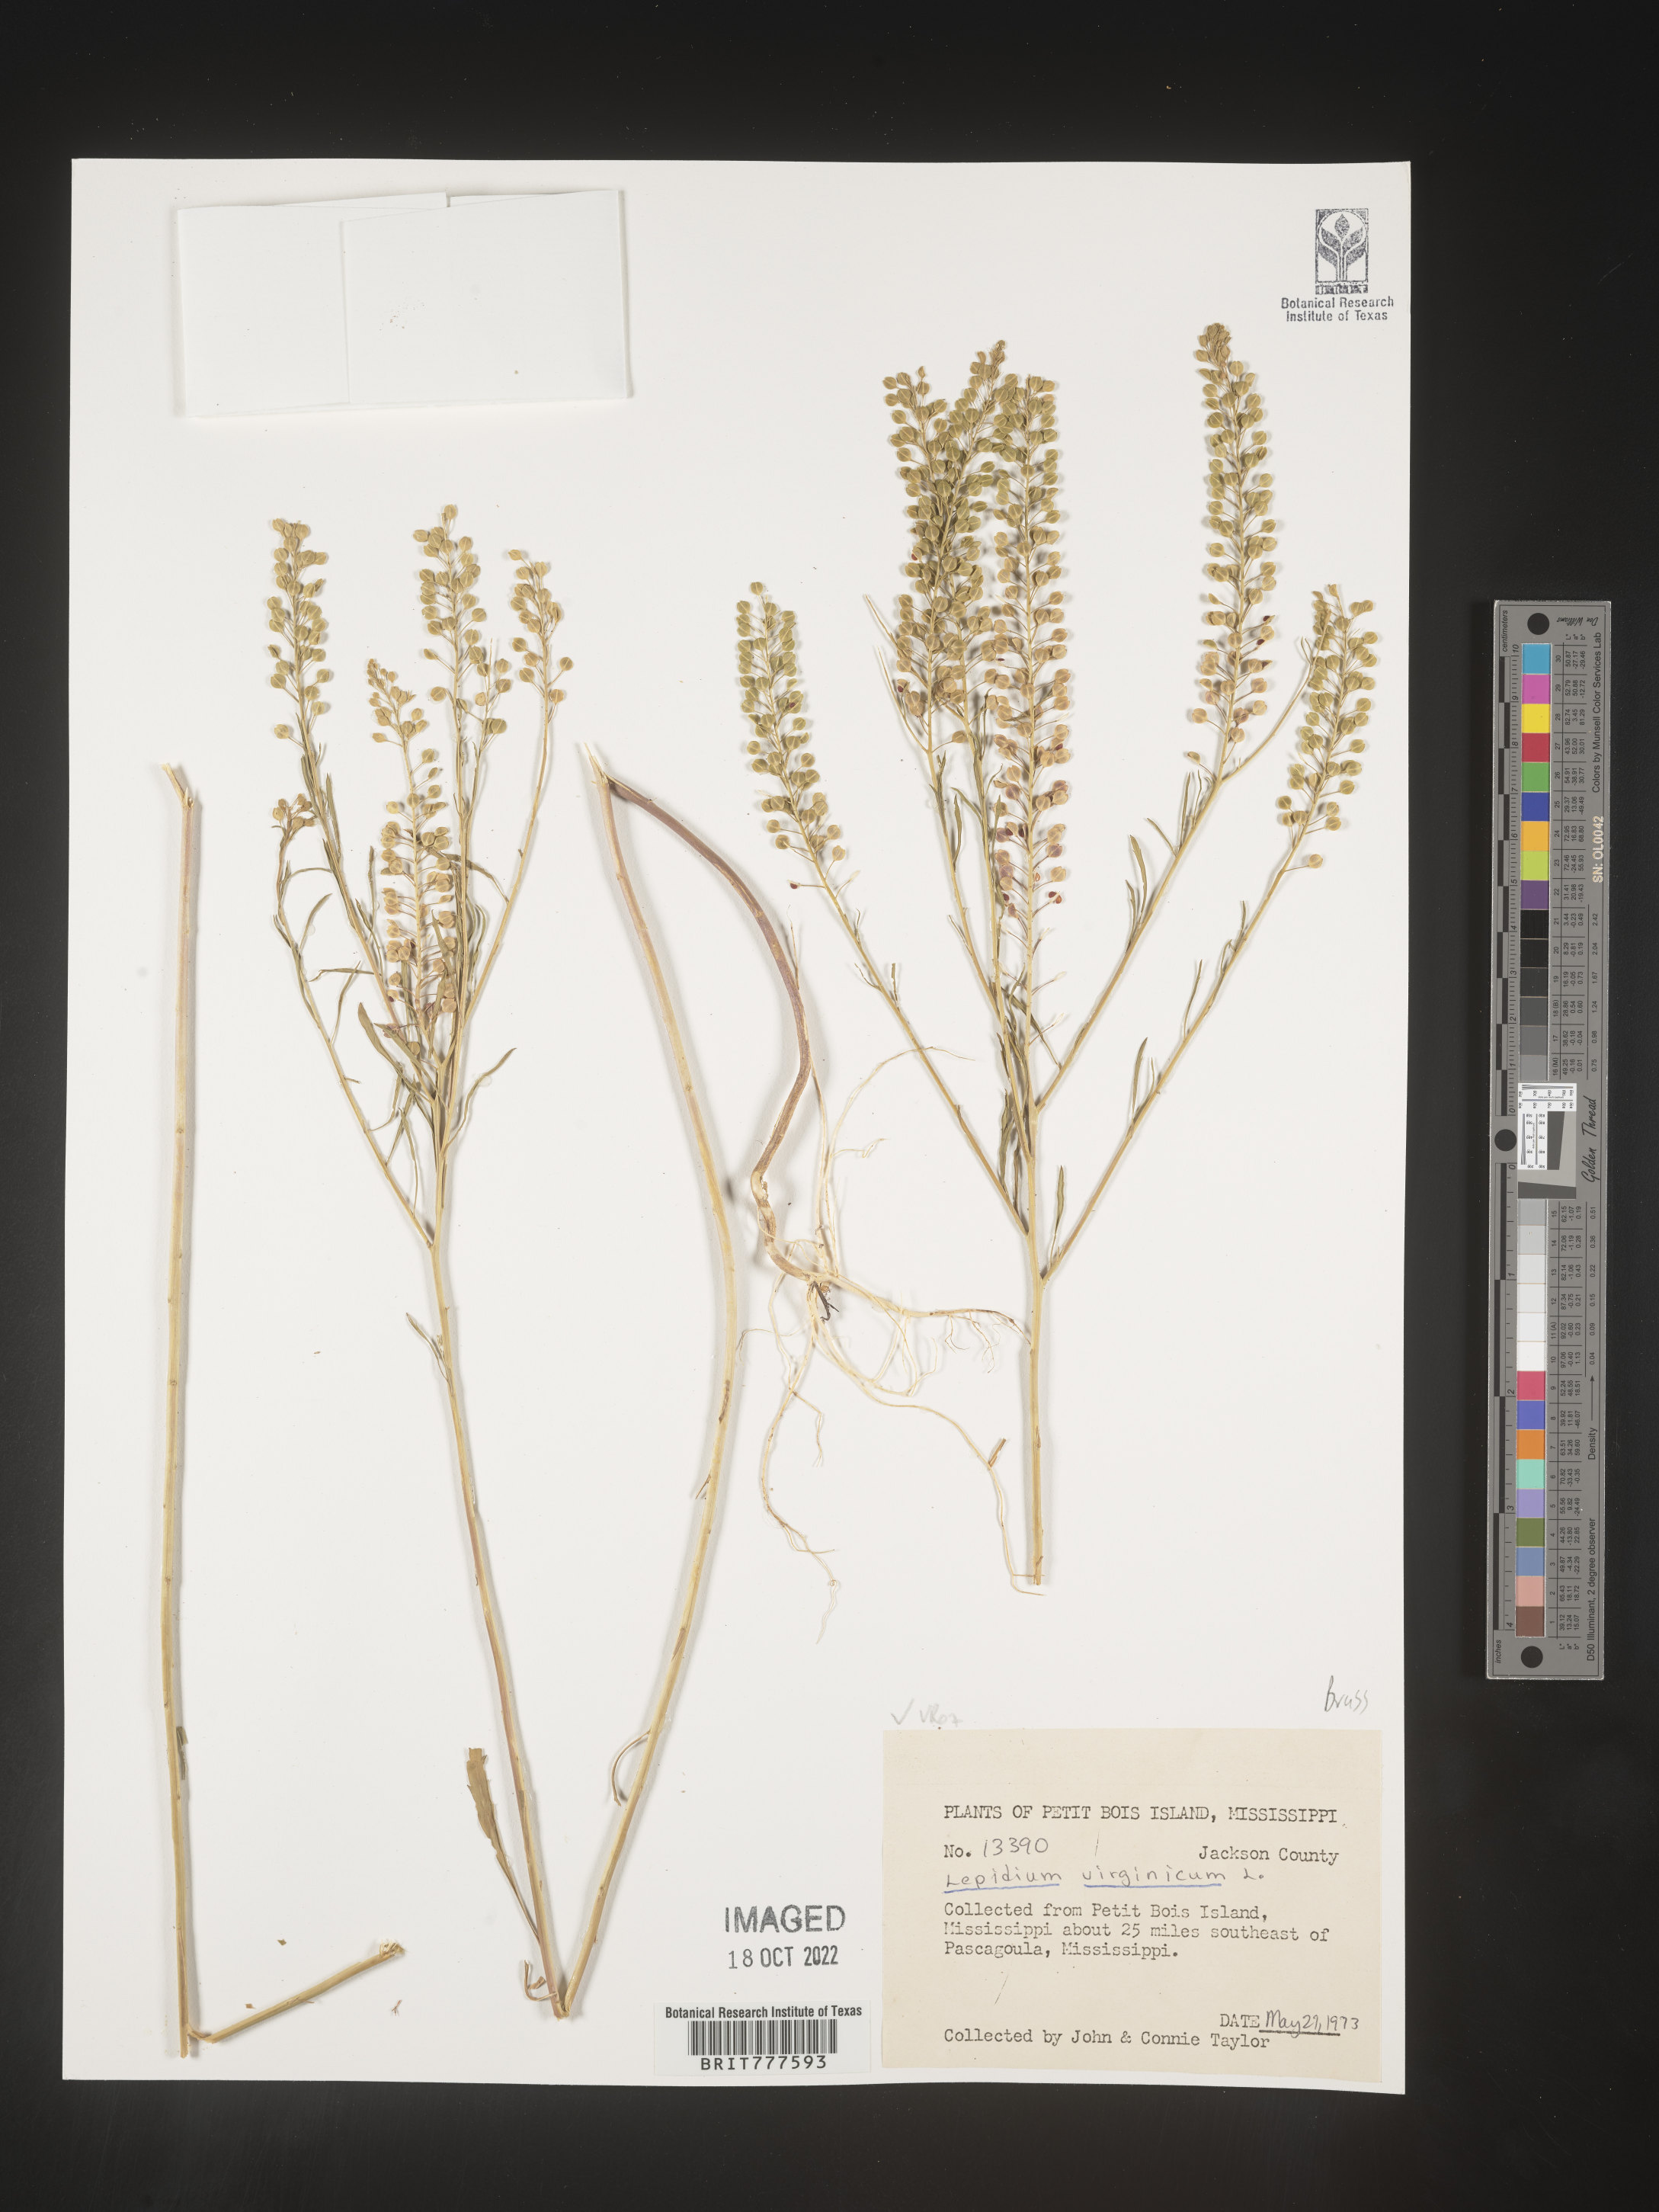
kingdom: Plantae
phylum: Tracheophyta
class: Magnoliopsida
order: Brassicales
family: Brassicaceae
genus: Lepidium
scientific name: Lepidium virginicum
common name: Least pepperwort
